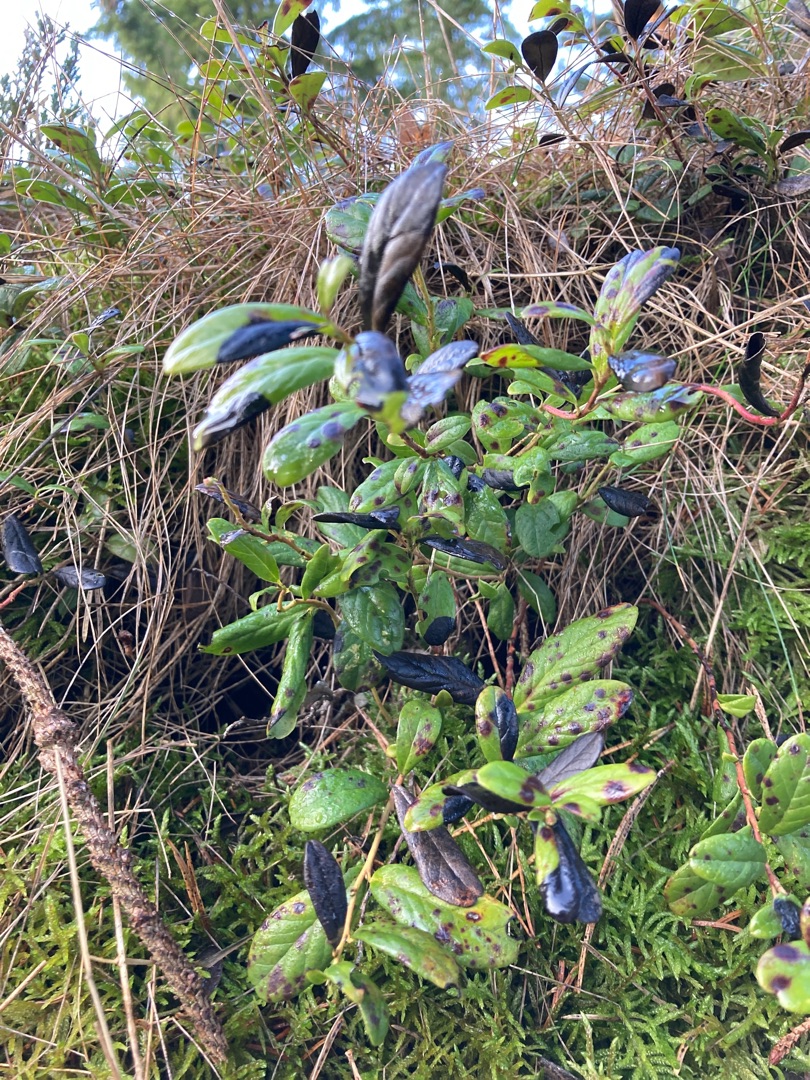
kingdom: Plantae
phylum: Tracheophyta
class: Magnoliopsida
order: Ericales
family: Ericaceae
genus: Vaccinium
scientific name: Vaccinium vitis-idaea
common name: Tyttebær
